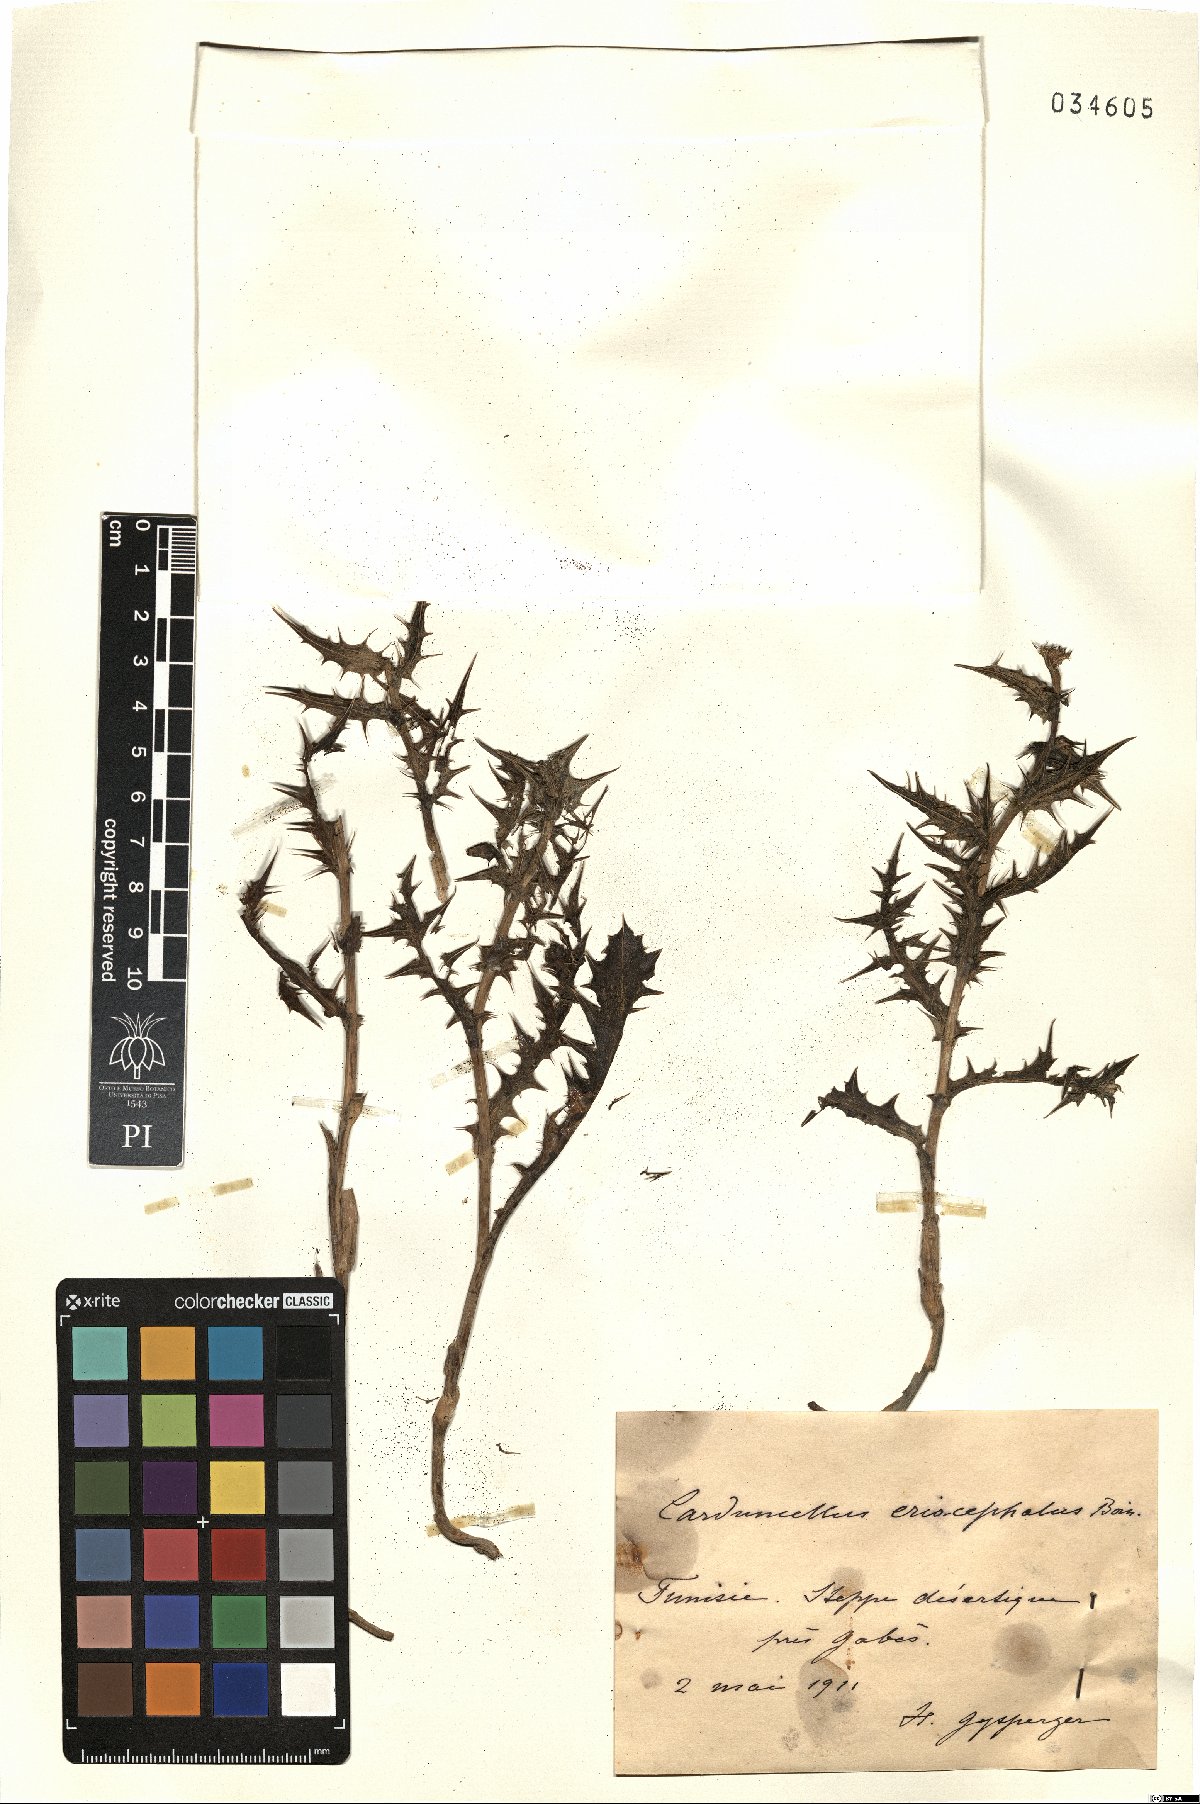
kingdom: Plantae
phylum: Tracheophyta
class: Magnoliopsida
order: Asterales
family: Asteraceae
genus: Carduncellus
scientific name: Carduncellus eriocephalus
